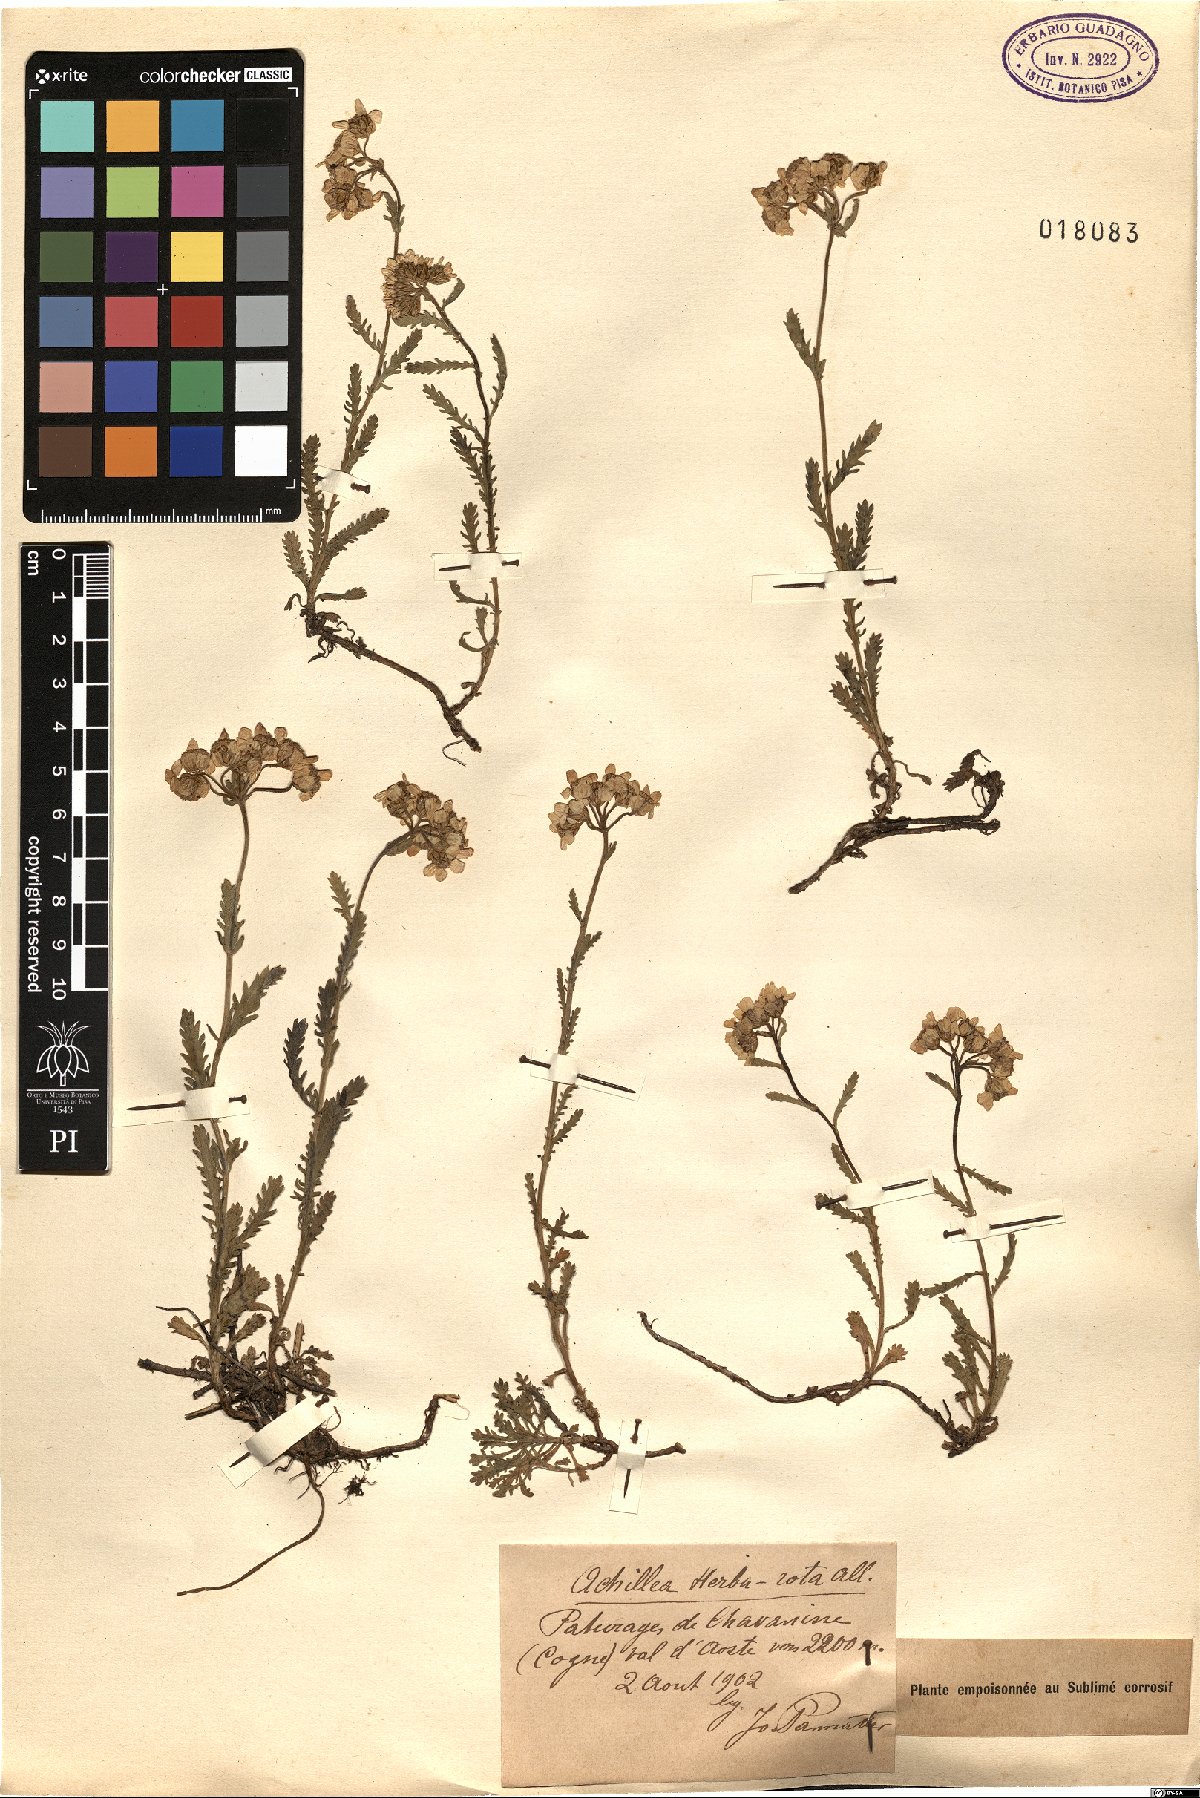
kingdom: Plantae
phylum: Tracheophyta
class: Magnoliopsida
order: Asterales
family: Asteraceae
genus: Achillea
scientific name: Achillea erba-rotta
